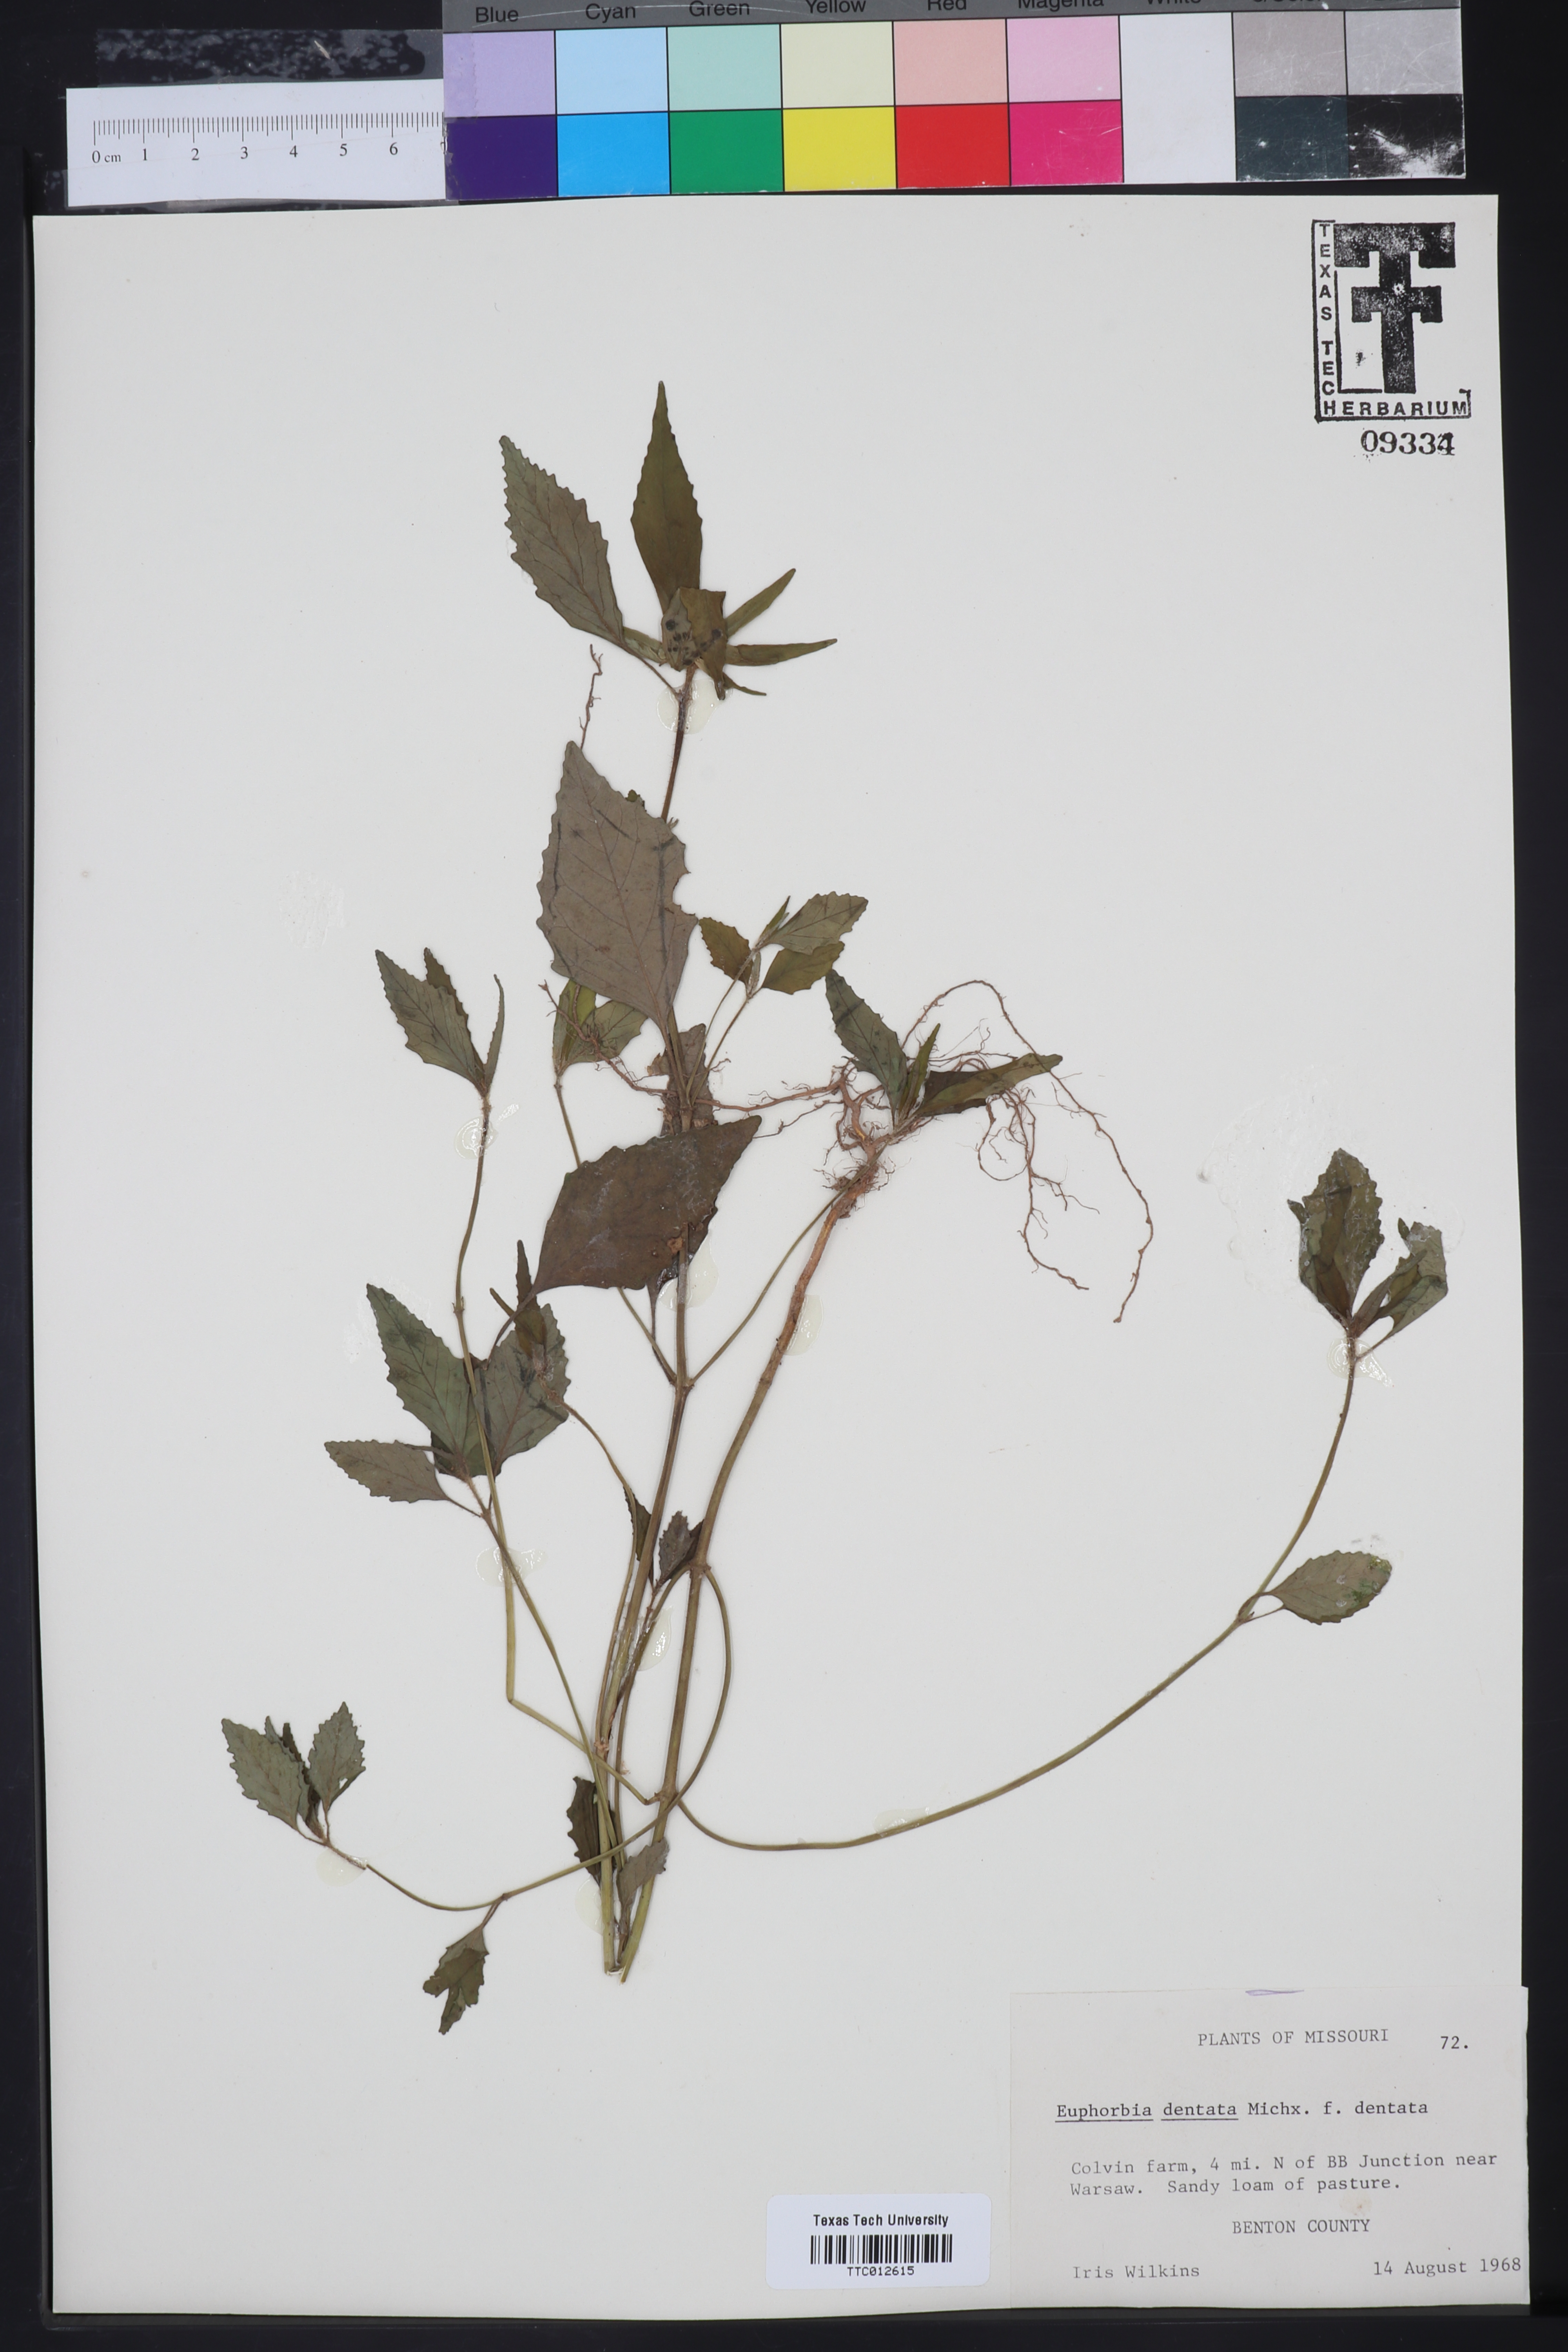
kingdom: Plantae
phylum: Tracheophyta
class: Magnoliopsida
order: Malpighiales
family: Euphorbiaceae
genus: Euphorbia
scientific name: Euphorbia dentata
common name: Dentate spurge
